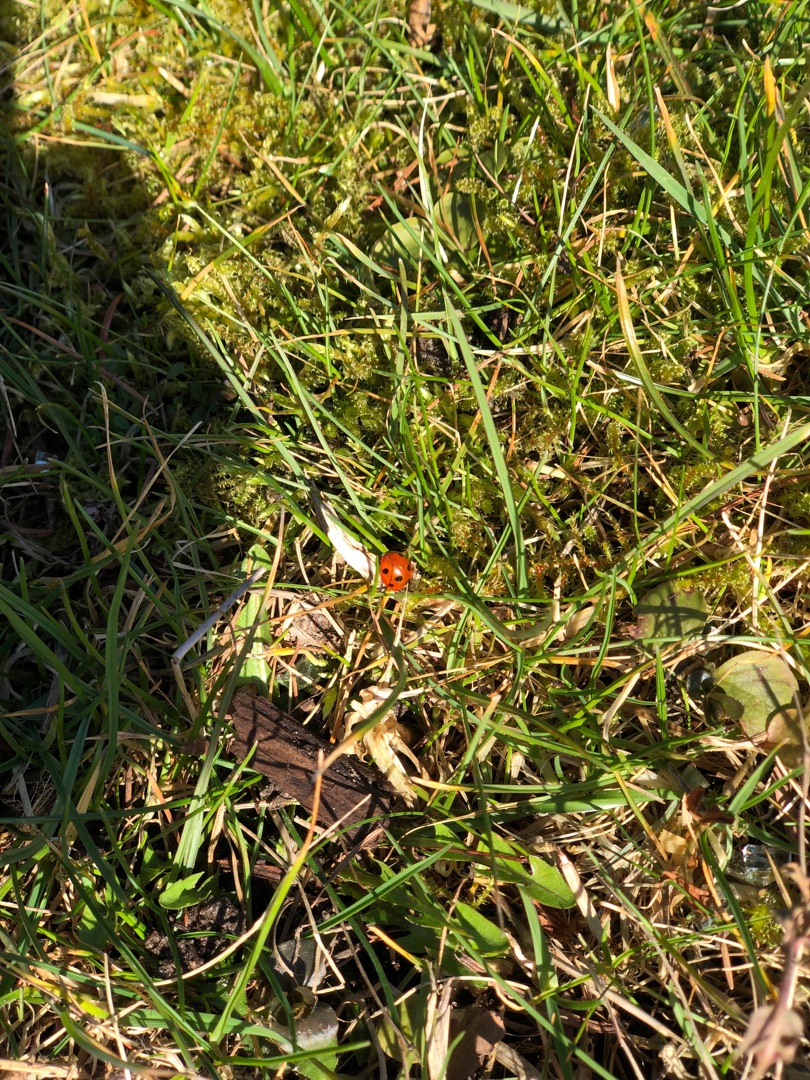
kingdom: Animalia
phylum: Arthropoda
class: Insecta
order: Coleoptera
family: Coccinellidae
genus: Coccinella
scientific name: Coccinella septempunctata
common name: Syvplettet mariehøne
